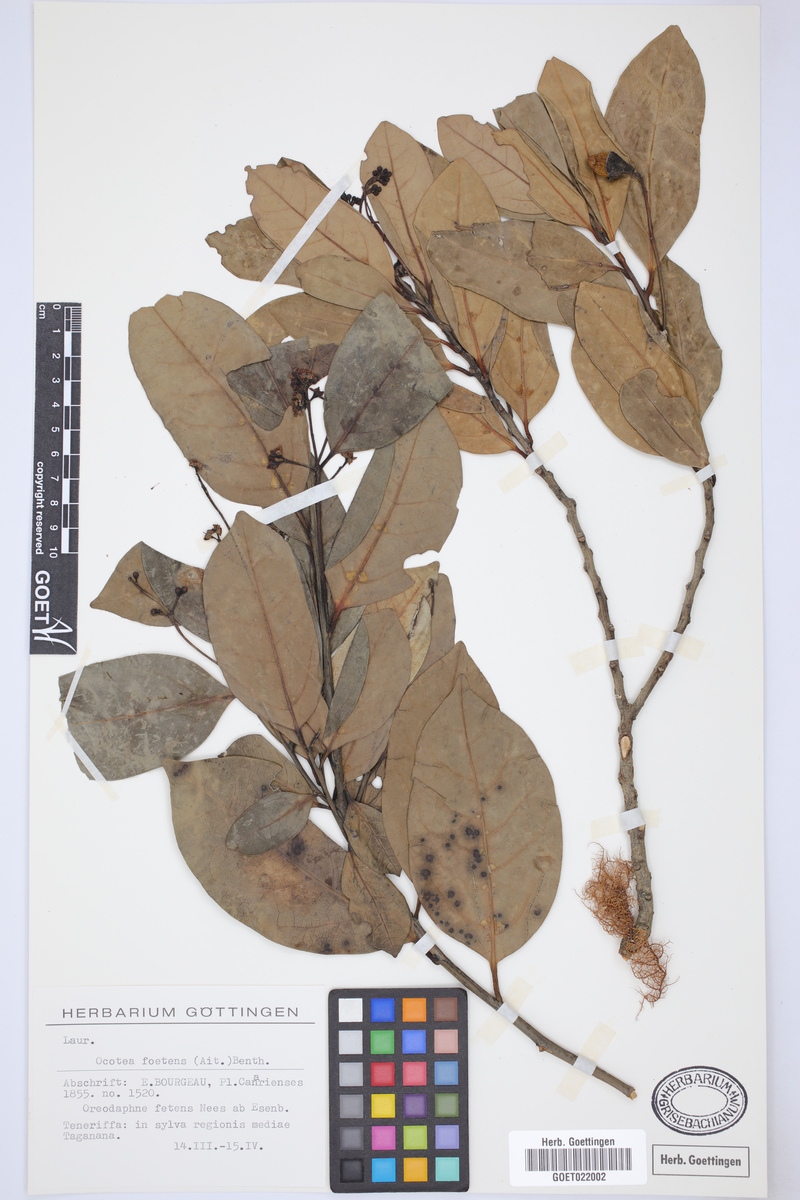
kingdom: Plantae
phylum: Tracheophyta
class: Magnoliopsida
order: Laurales
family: Lauraceae
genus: Mespilodaphne
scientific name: Mespilodaphne foetens
